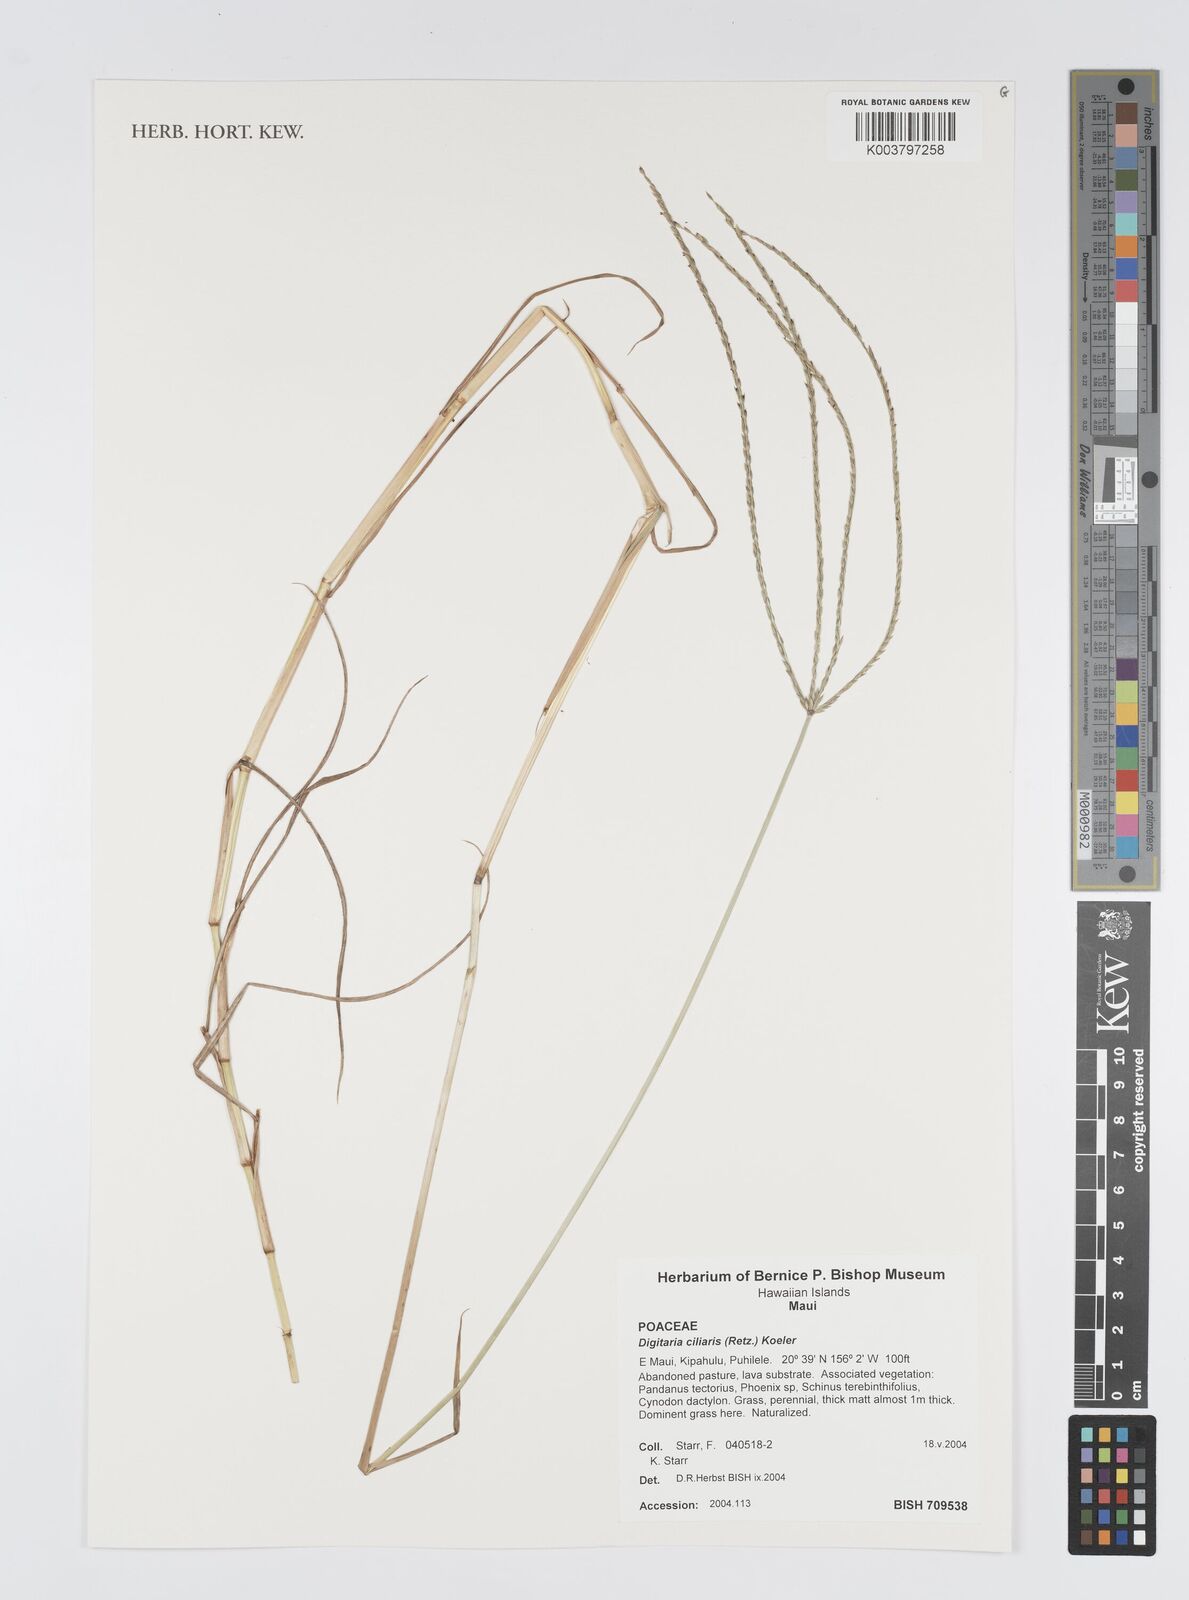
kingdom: Plantae
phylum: Tracheophyta
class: Liliopsida
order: Poales
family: Poaceae
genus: Digitaria
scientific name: Digitaria ciliaris
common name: Tropical finger-grass
